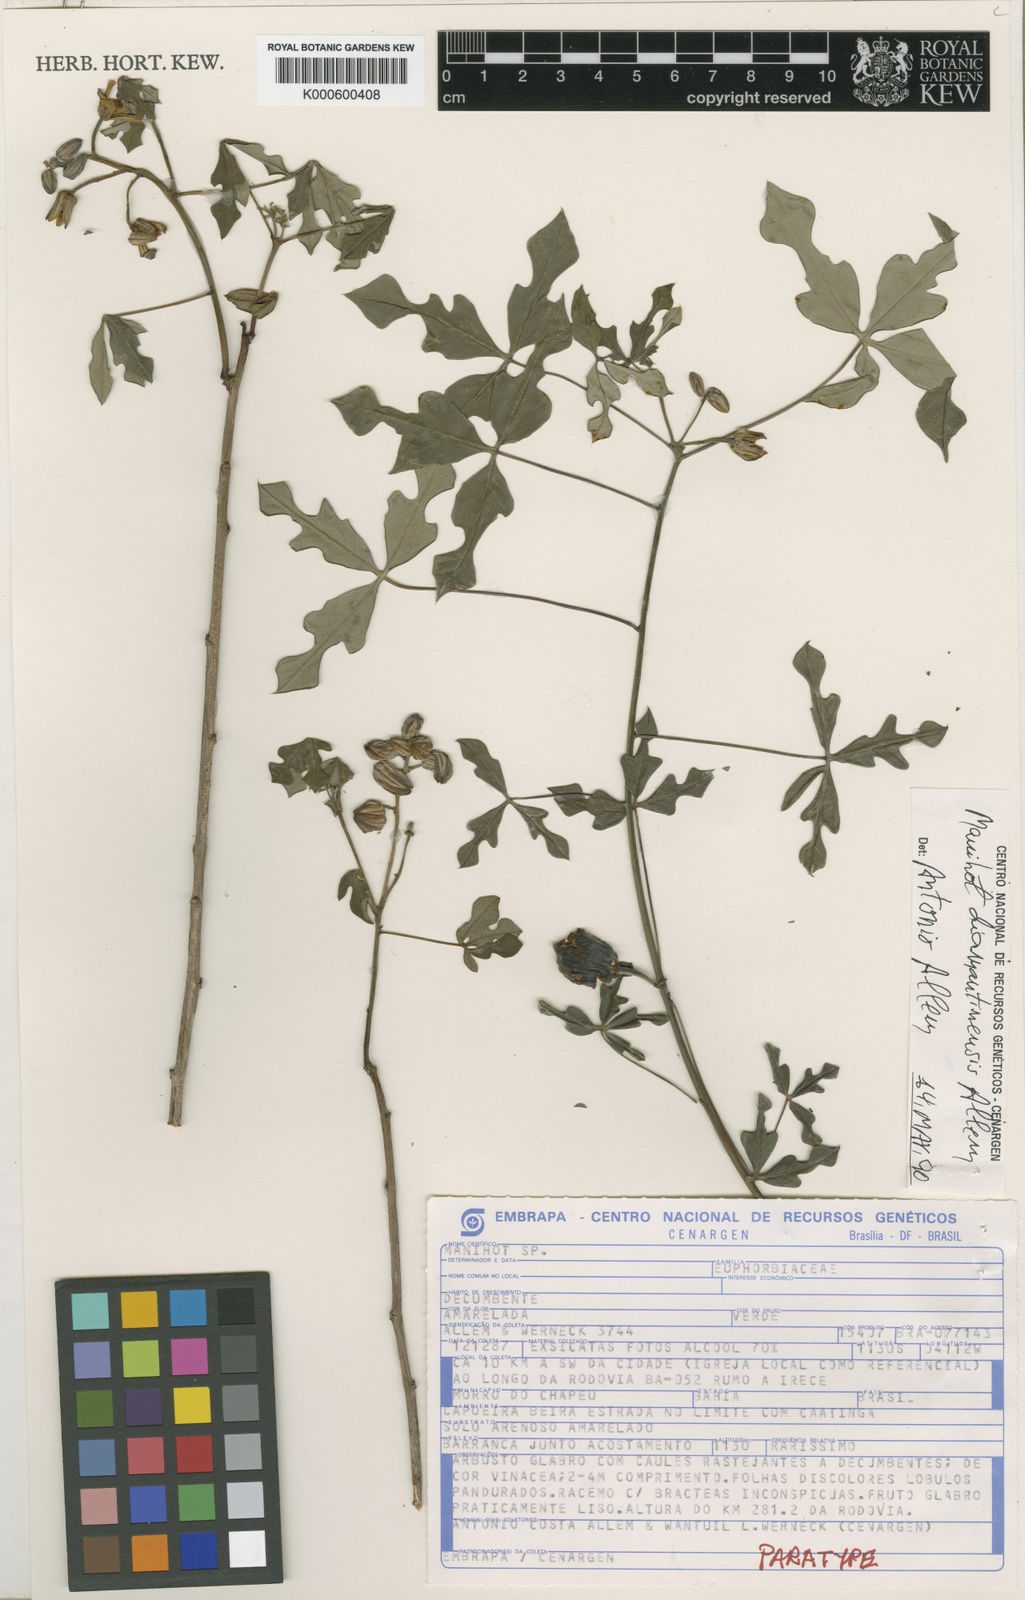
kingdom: Plantae
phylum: Tracheophyta
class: Magnoliopsida
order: Malpighiales
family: Euphorbiaceae
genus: Manihot
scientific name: Manihot diamantinensis
